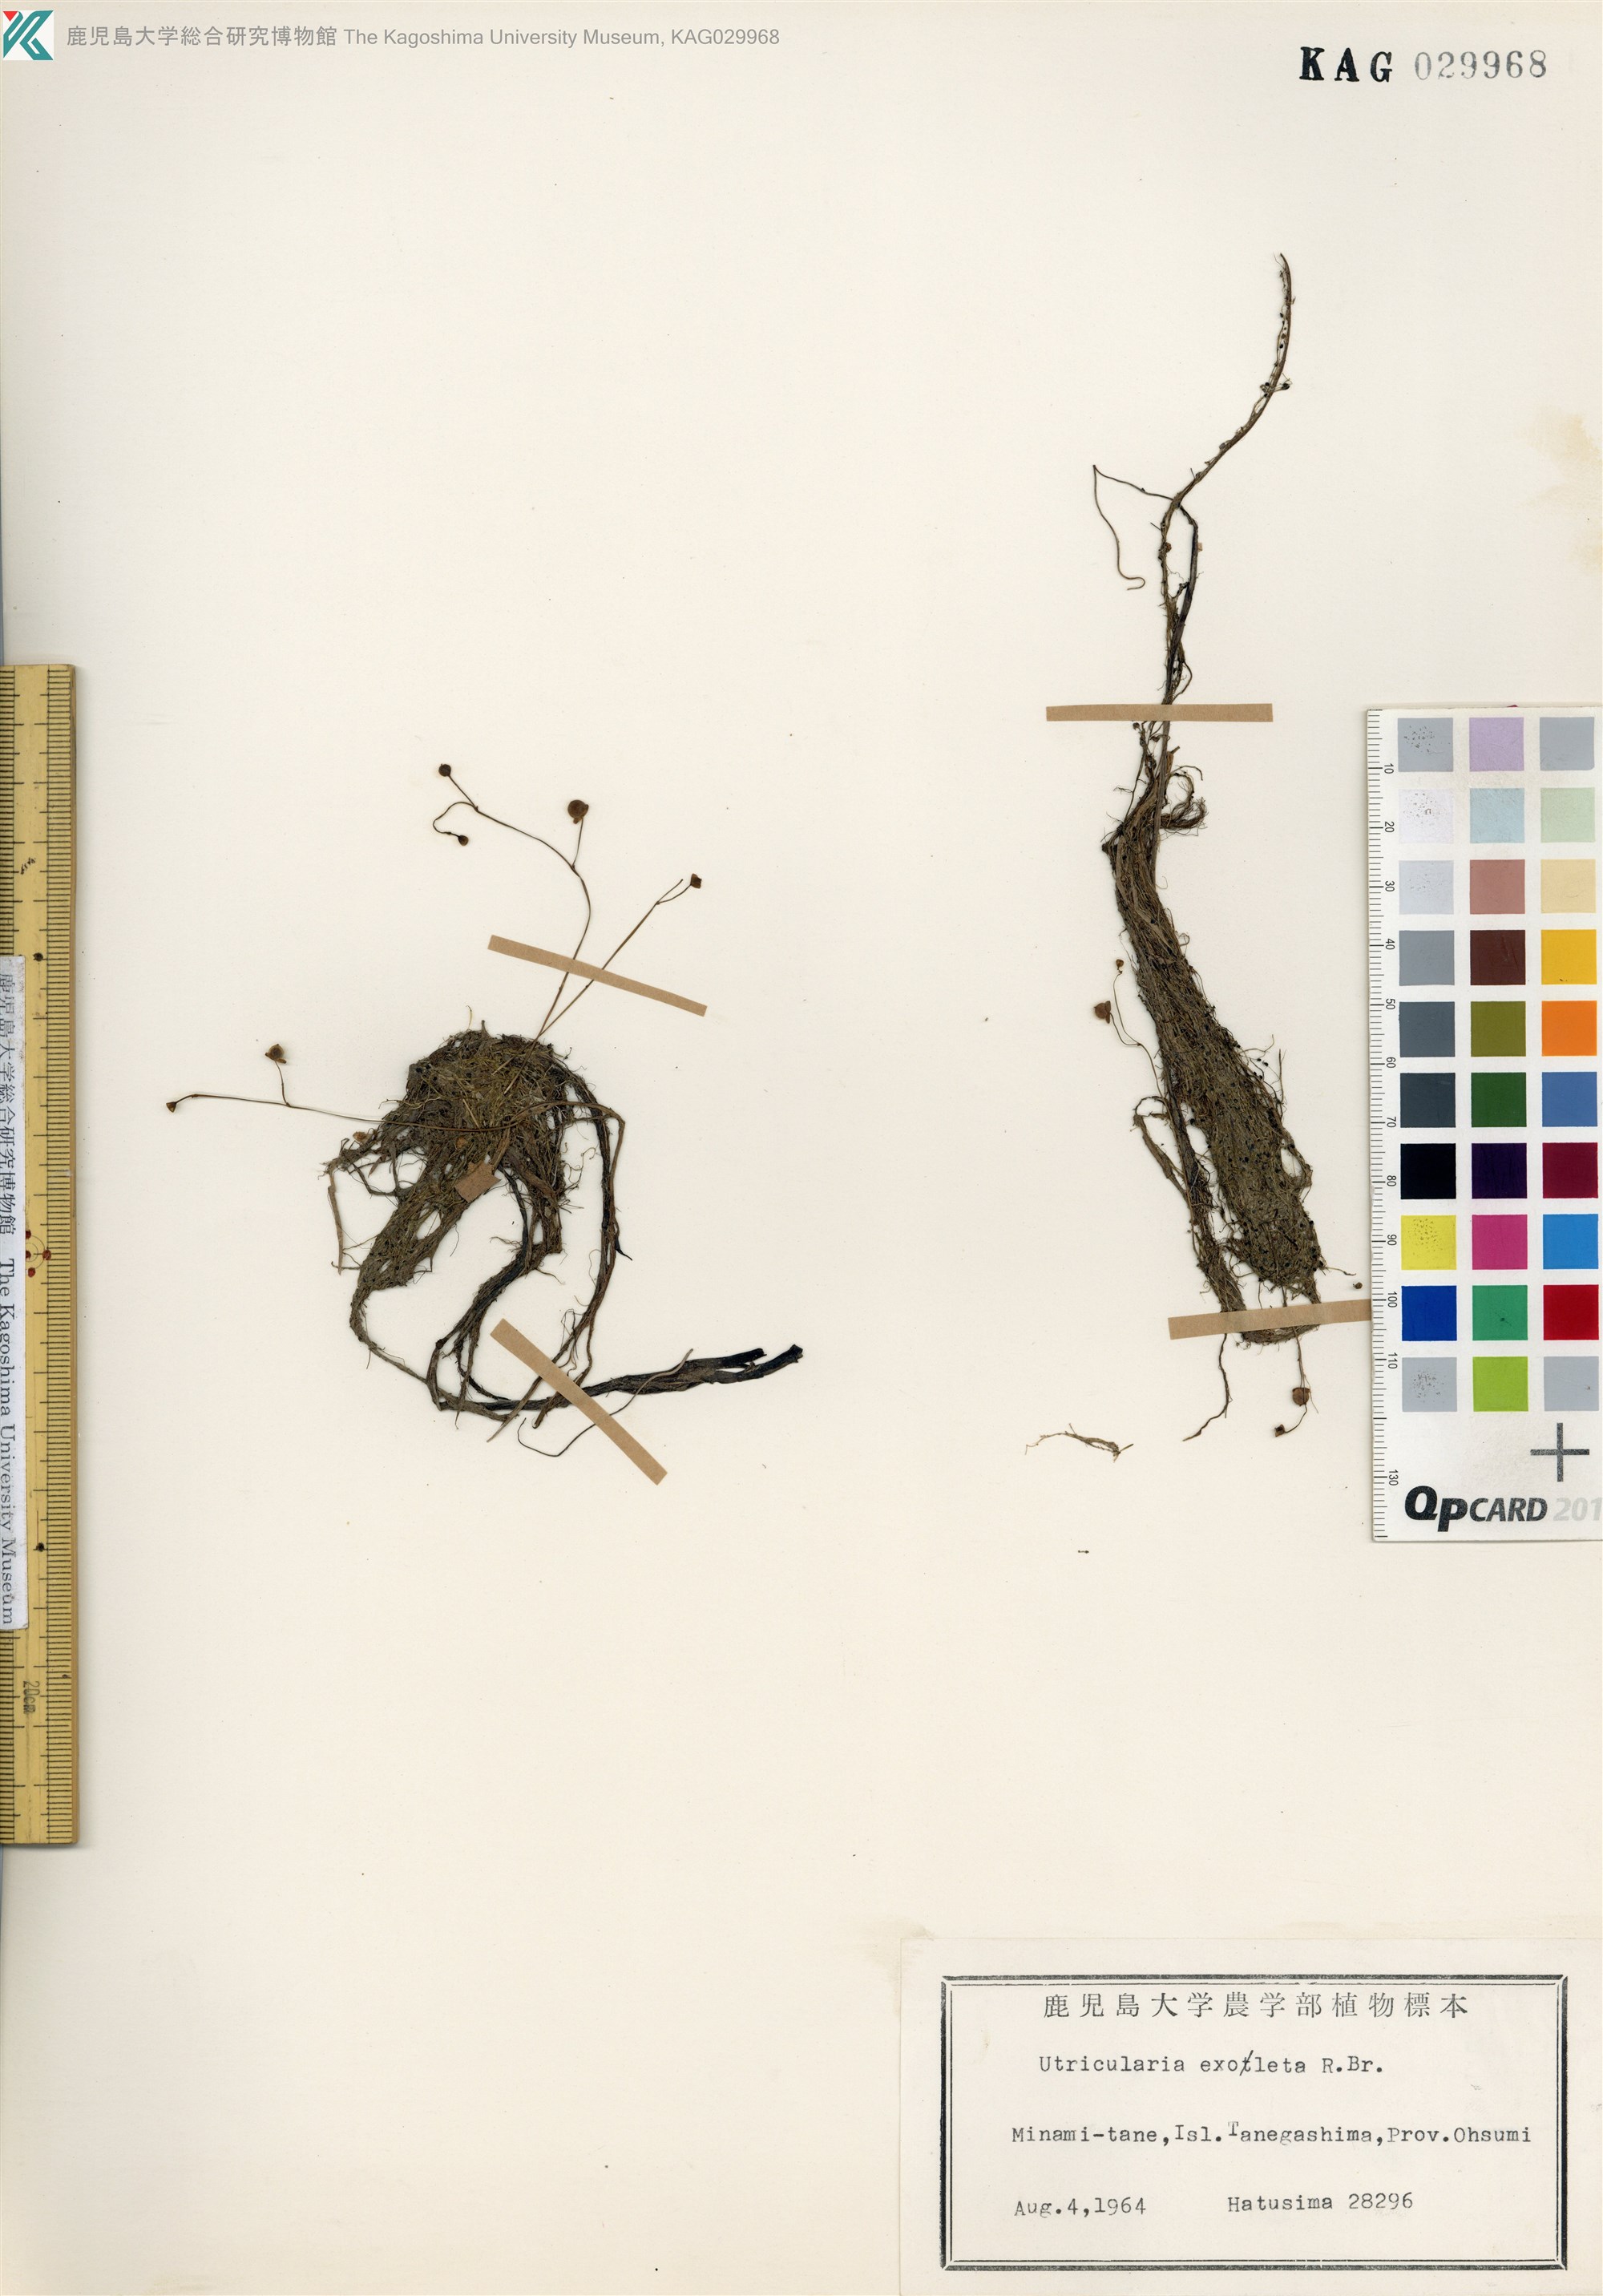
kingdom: Plantae
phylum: Tracheophyta
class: Magnoliopsida
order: Lamiales
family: Lentibulariaceae
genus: Utricularia
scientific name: Utricularia gibba
